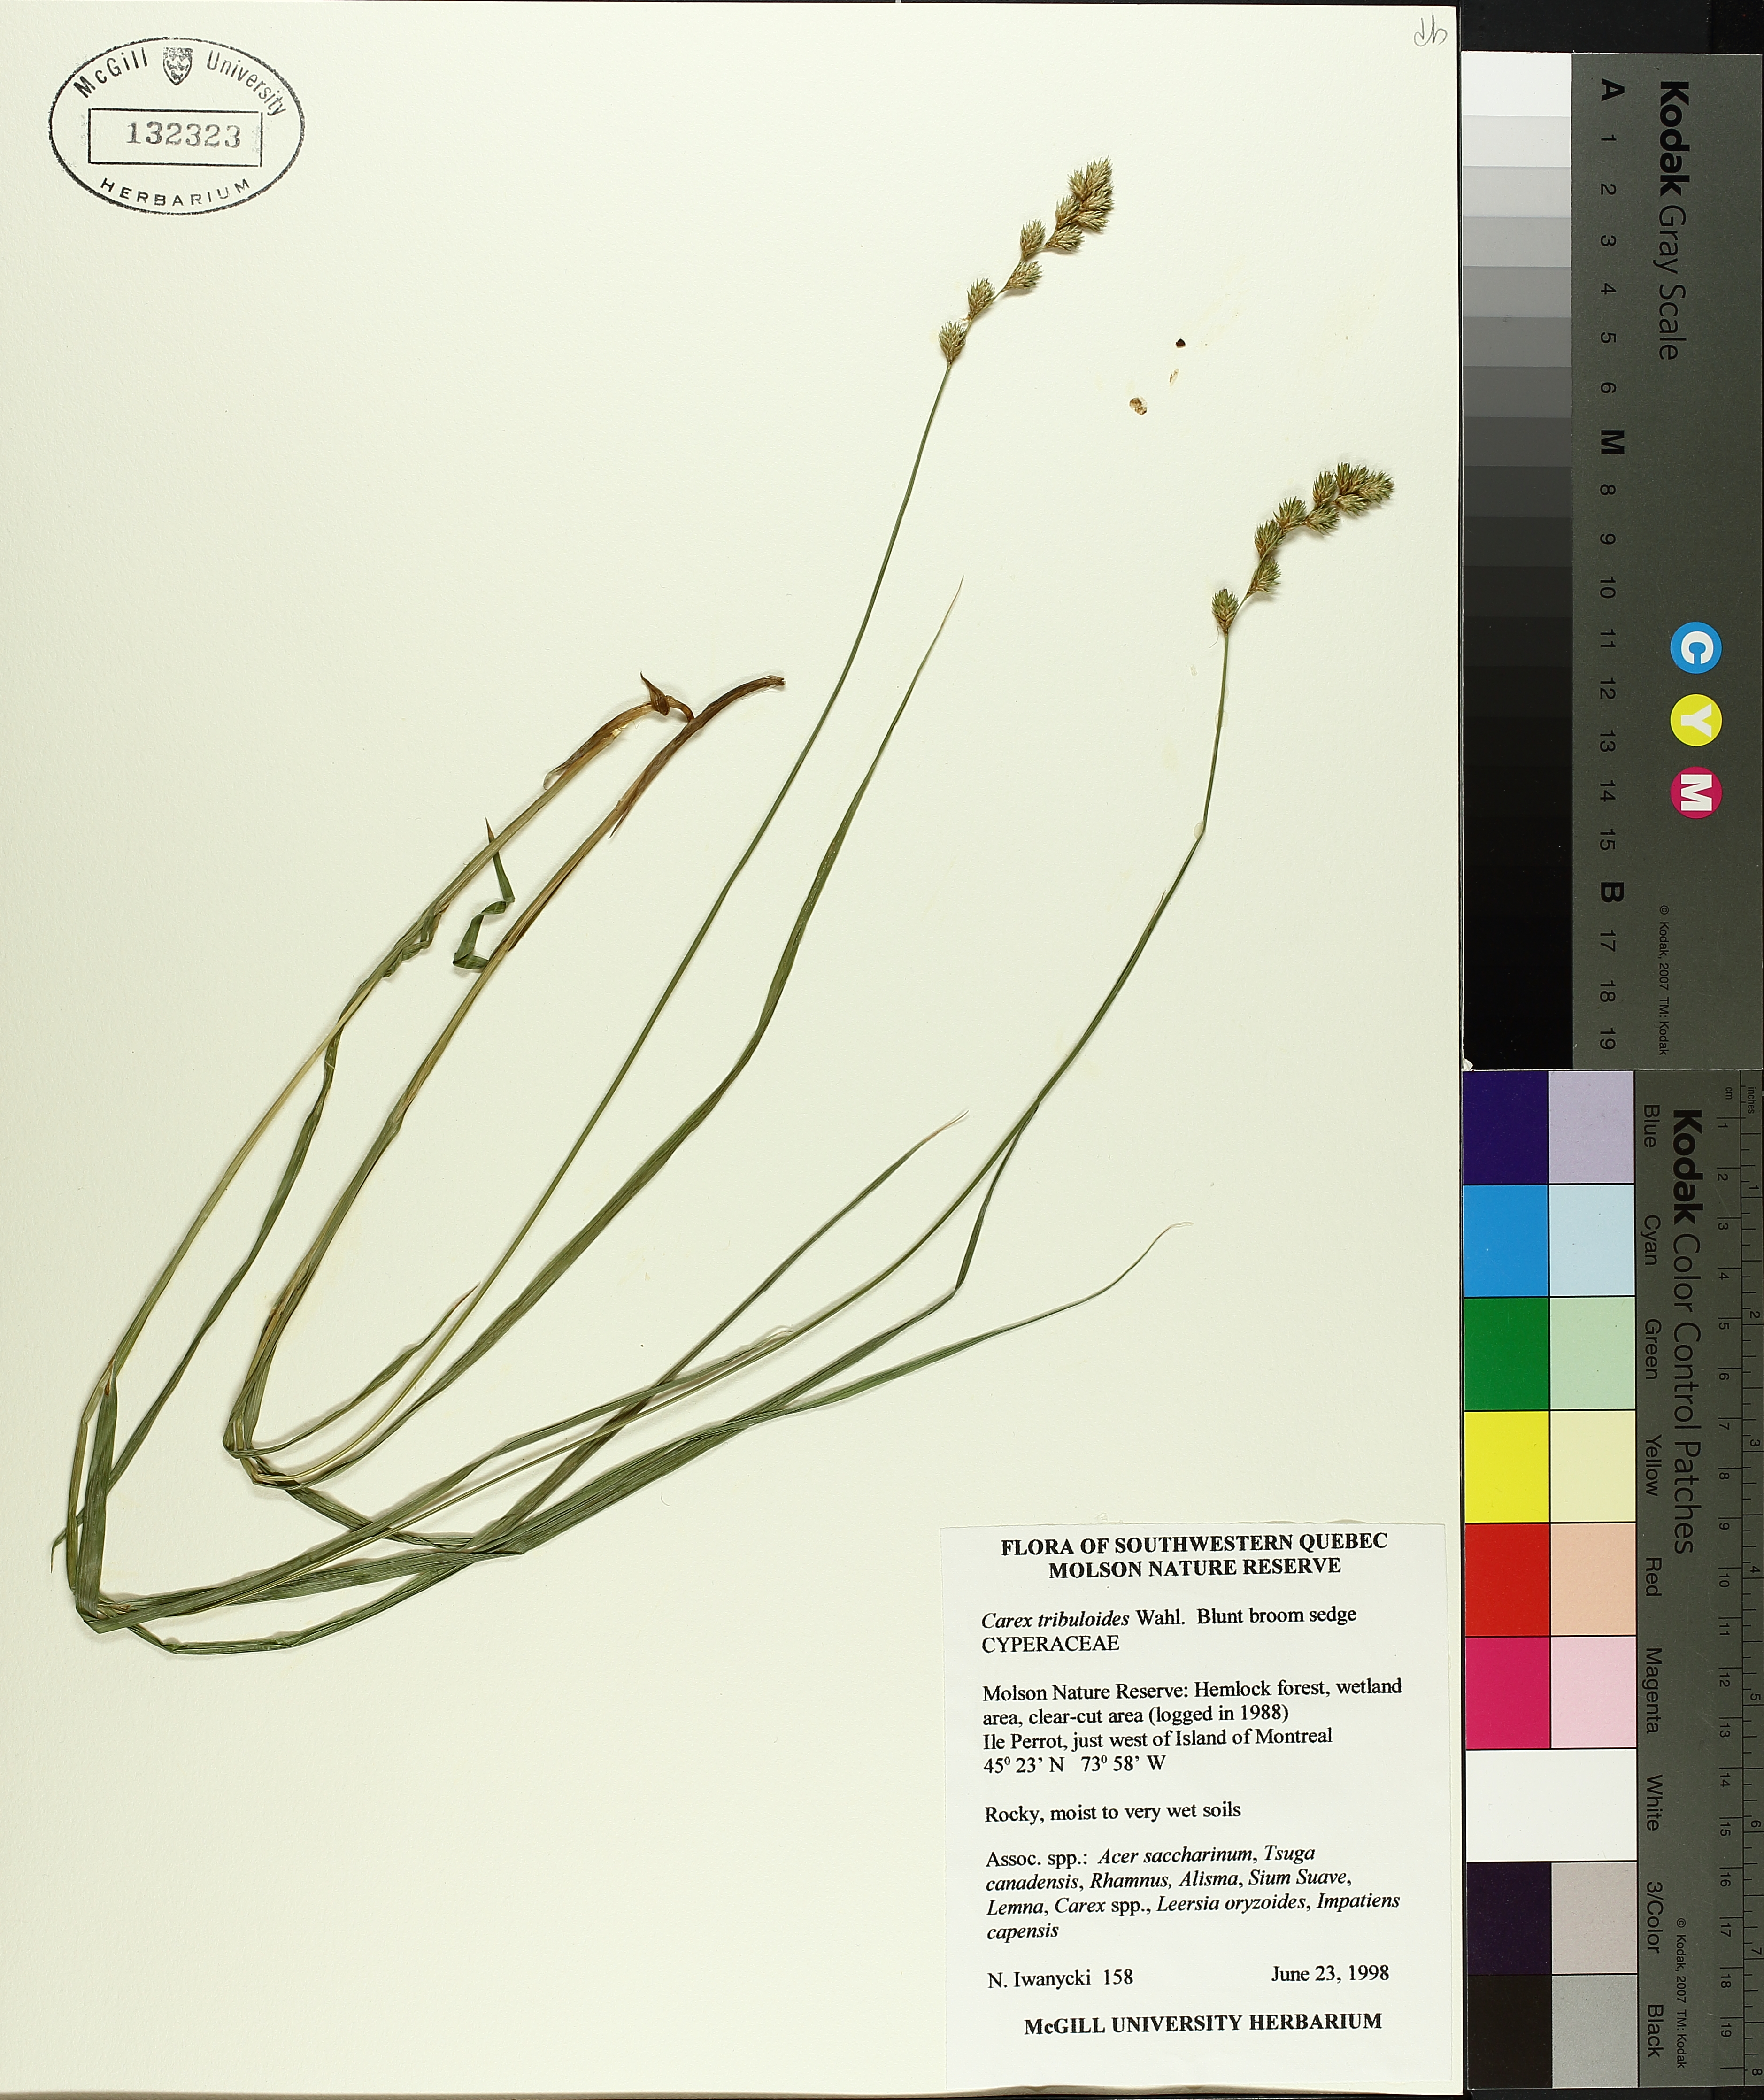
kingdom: Plantae
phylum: Tracheophyta
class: Liliopsida
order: Poales
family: Cyperaceae
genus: Carex
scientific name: Carex tribuloides
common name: Blunt broom sedge
